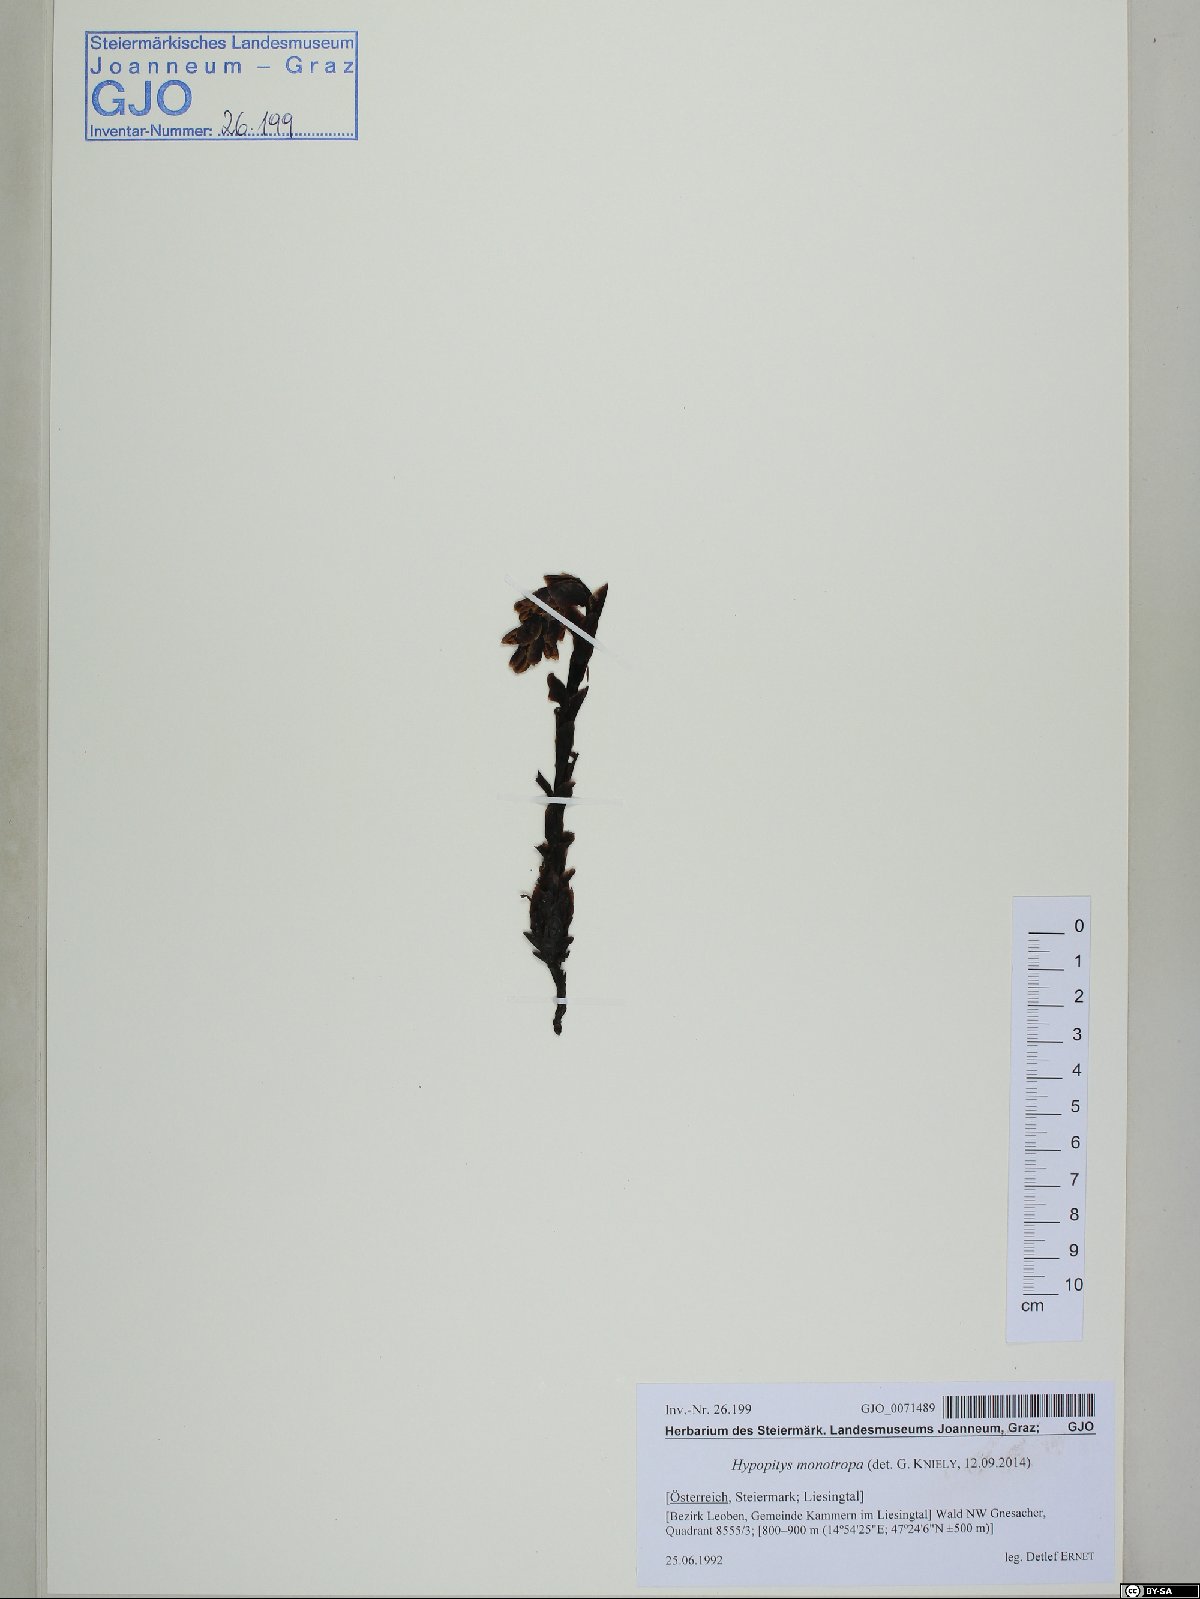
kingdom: Plantae
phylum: Tracheophyta
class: Magnoliopsida
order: Ericales
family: Ericaceae
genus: Hypopitys
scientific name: Hypopitys monotropa
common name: Yellow bird's-nest
